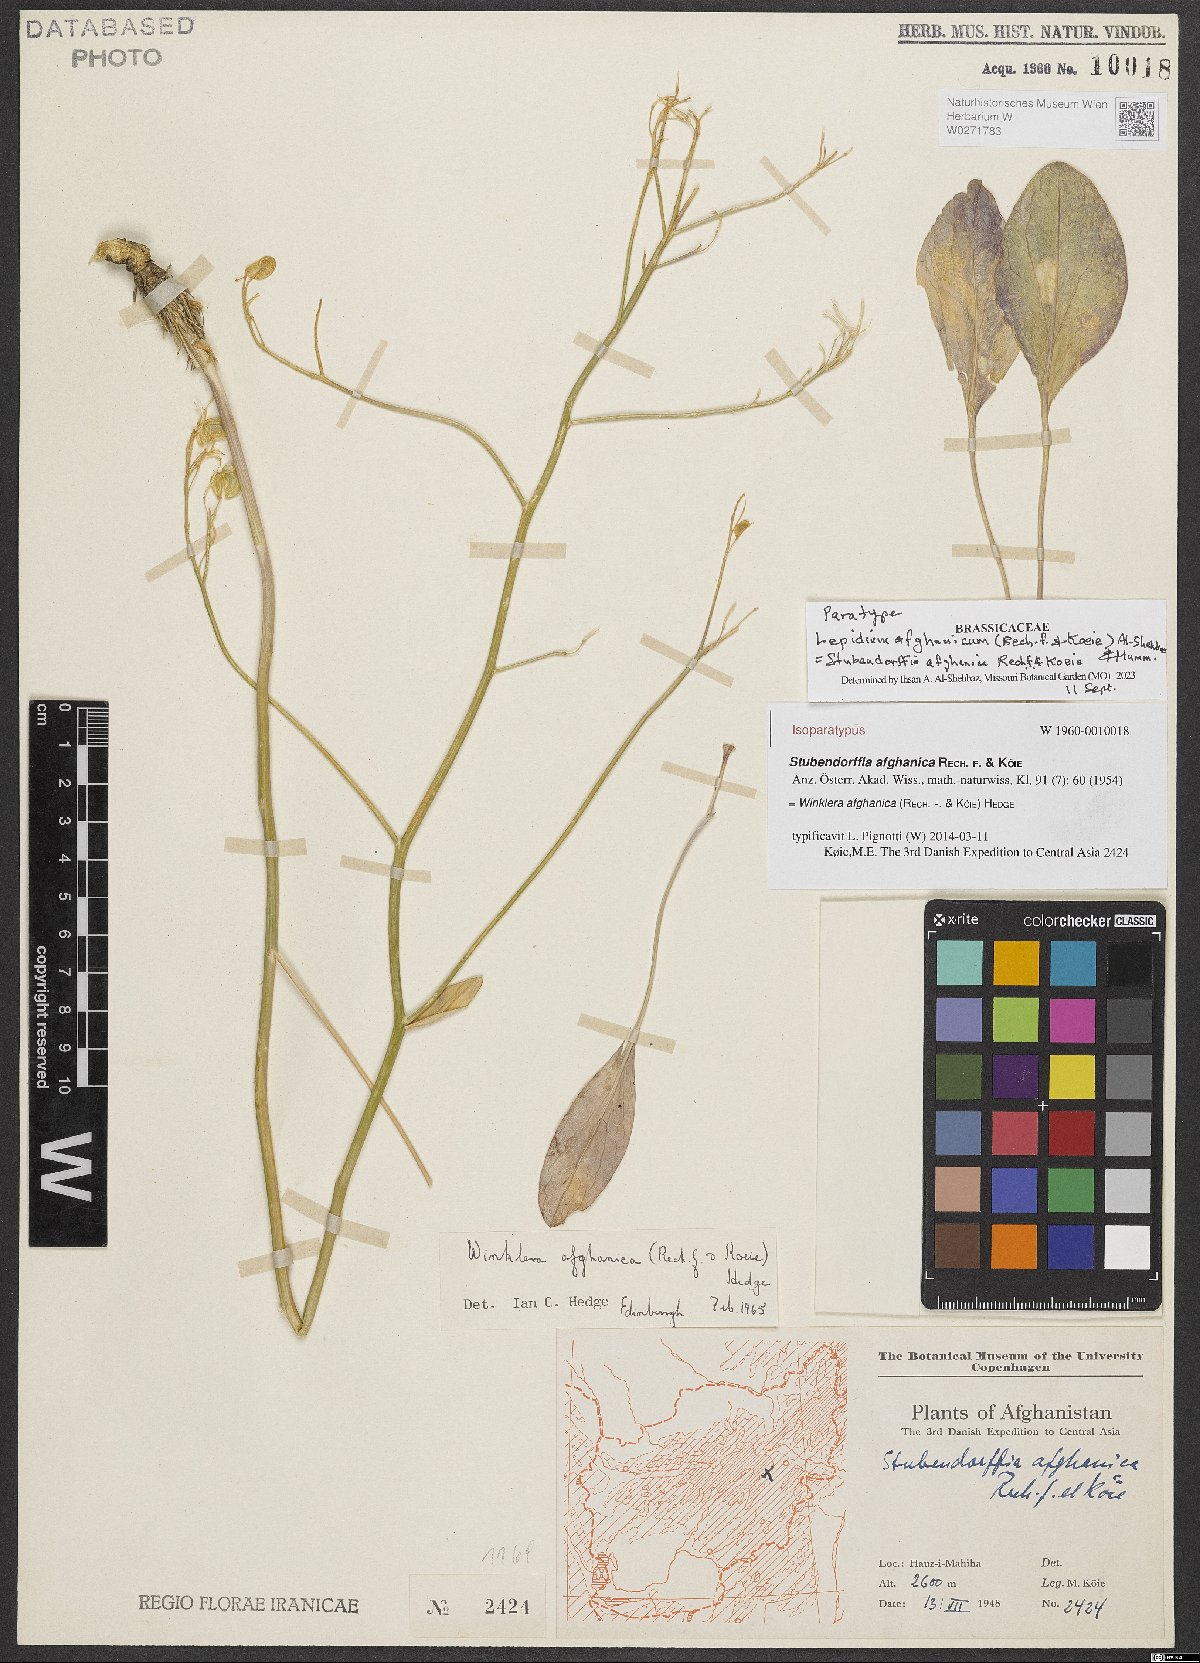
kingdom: Plantae
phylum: Tracheophyta
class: Magnoliopsida
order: Brassicales
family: Brassicaceae
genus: Lepidium
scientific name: Lepidium afghanicum
